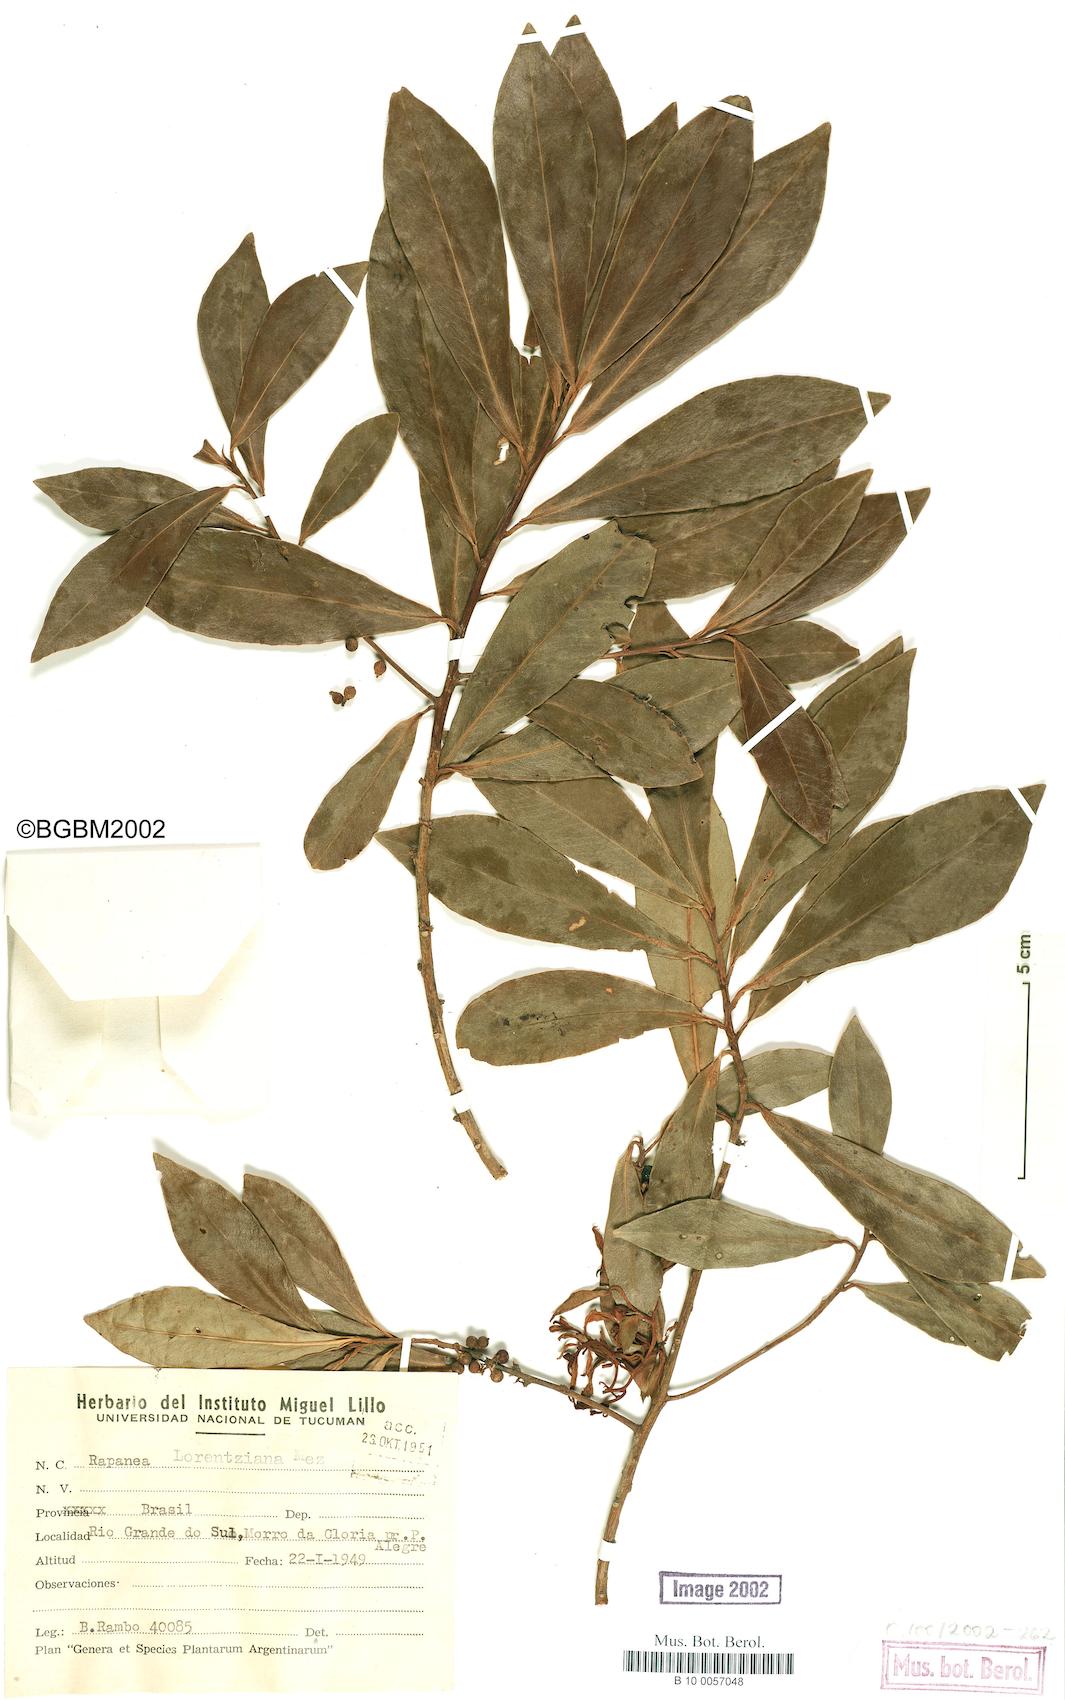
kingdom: Plantae
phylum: Tracheophyta
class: Magnoliopsida
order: Ericales
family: Primulaceae
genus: Myrsine
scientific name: Myrsine lorentziana
